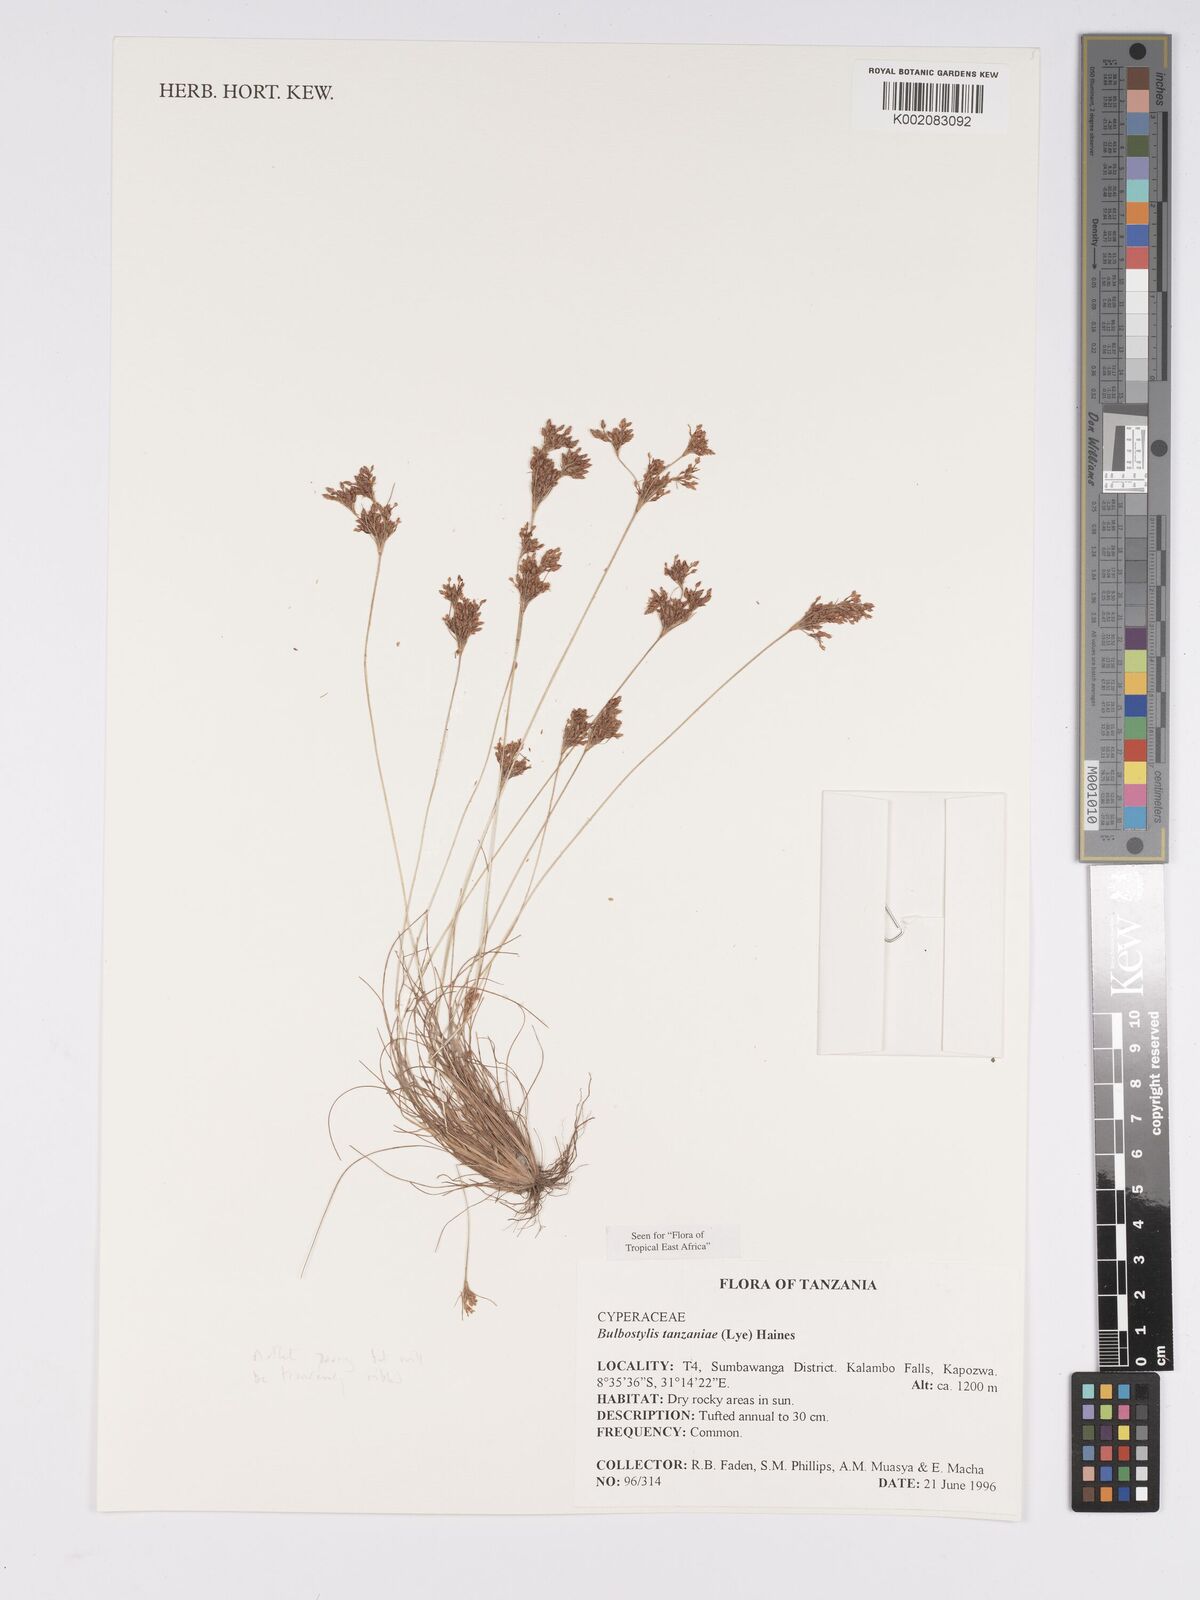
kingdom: Plantae
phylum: Tracheophyta
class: Liliopsida
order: Poales
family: Cyperaceae
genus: Bulbostylis
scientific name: Bulbostylis tanzaniae
